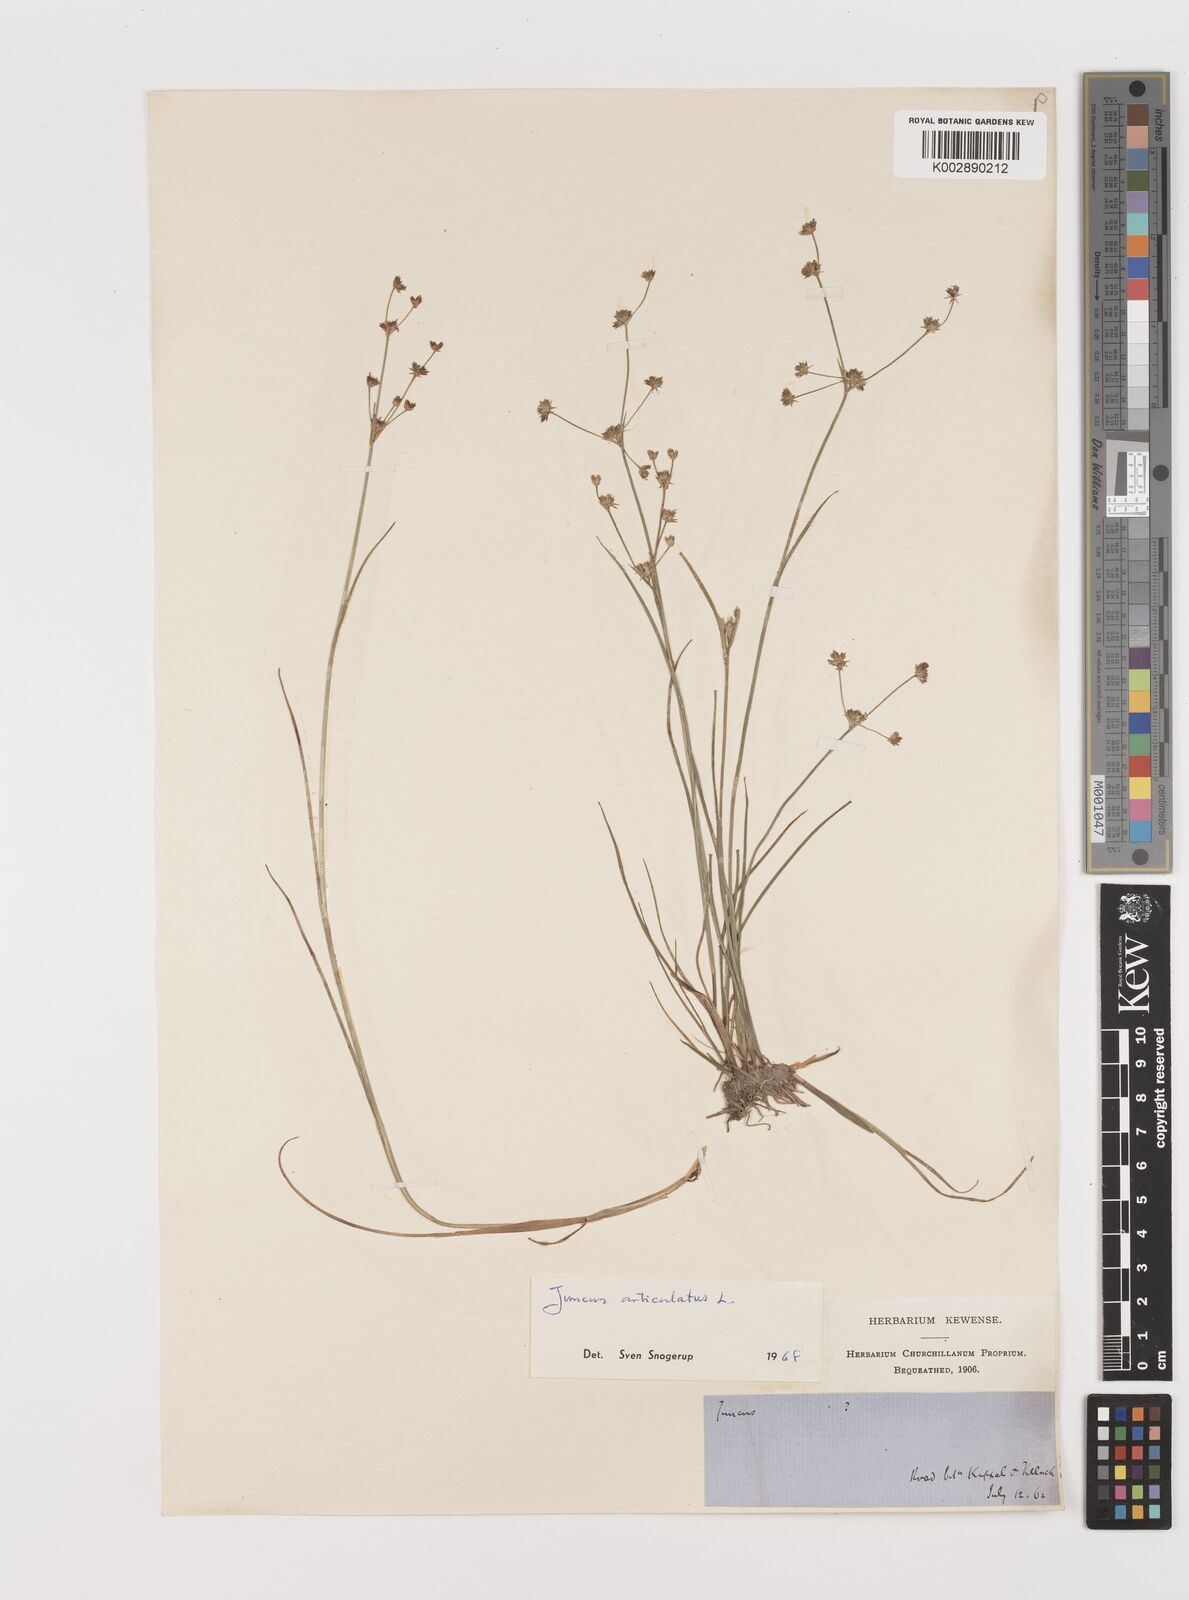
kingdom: Plantae
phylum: Tracheophyta
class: Liliopsida
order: Poales
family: Juncaceae
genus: Juncus
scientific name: Juncus articulatus
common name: Jointed rush
